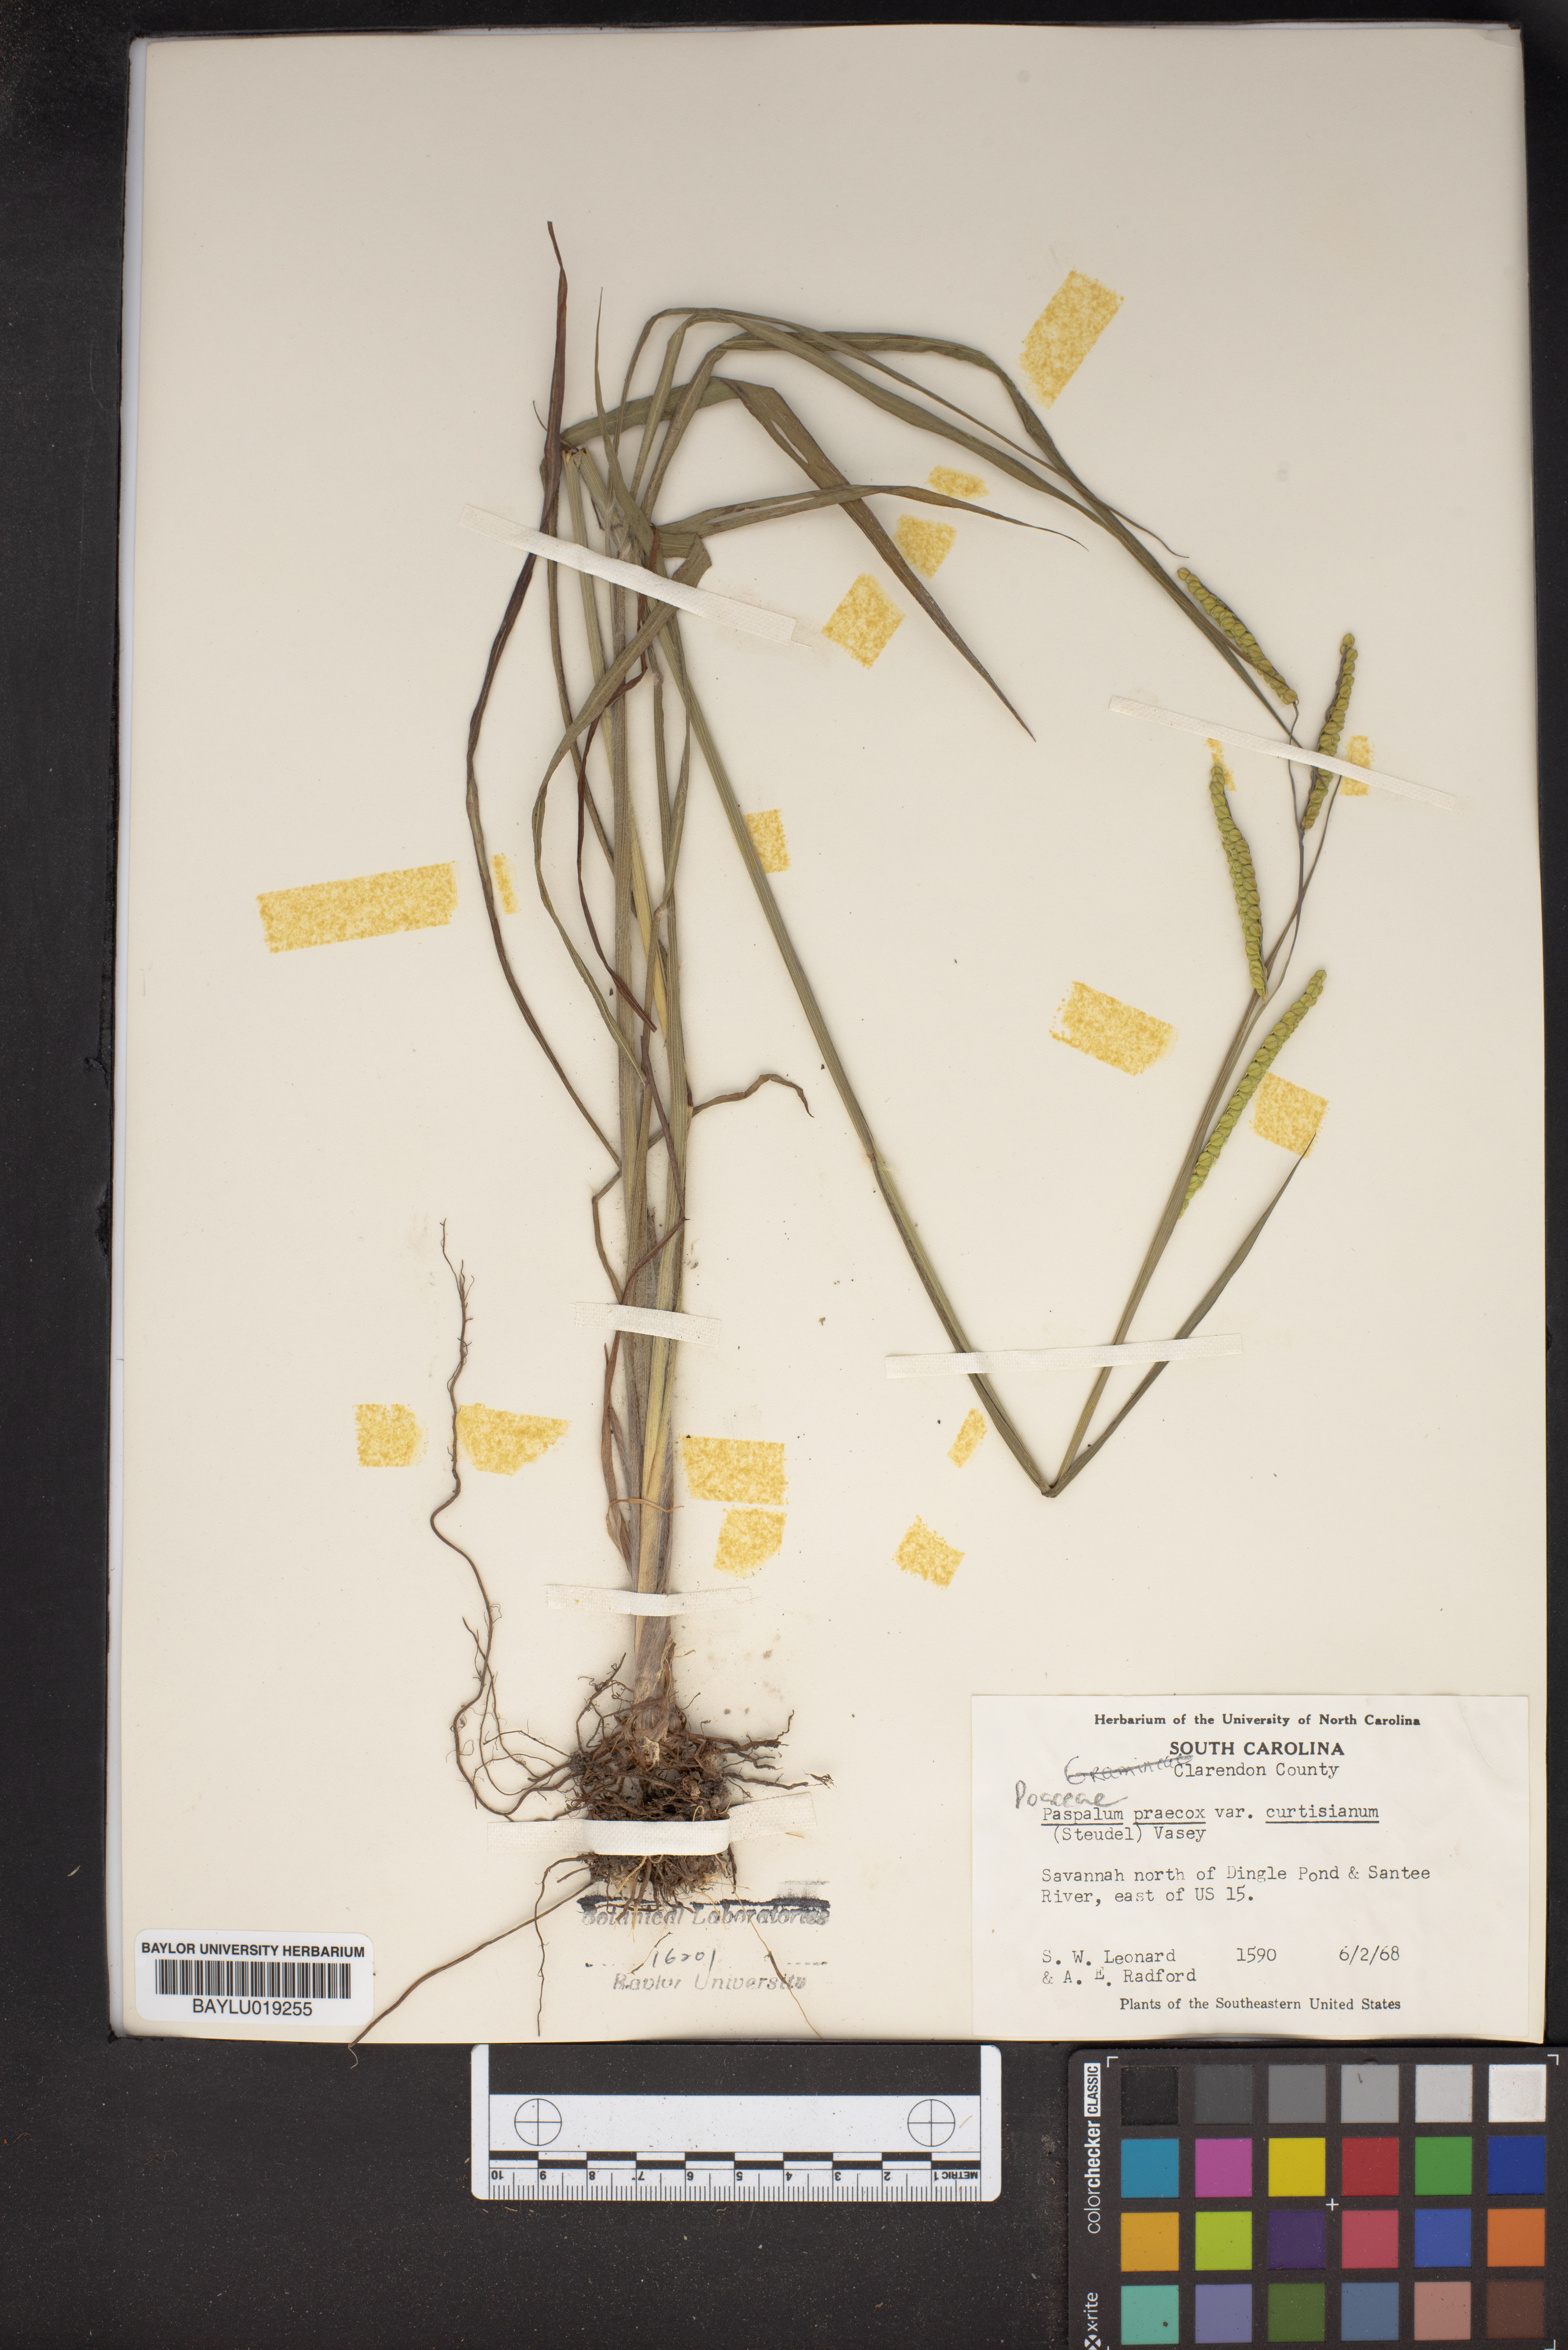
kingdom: Plantae
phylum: Tracheophyta
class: Liliopsida
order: Poales
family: Poaceae
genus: Paspalum
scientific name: Paspalum praecox
